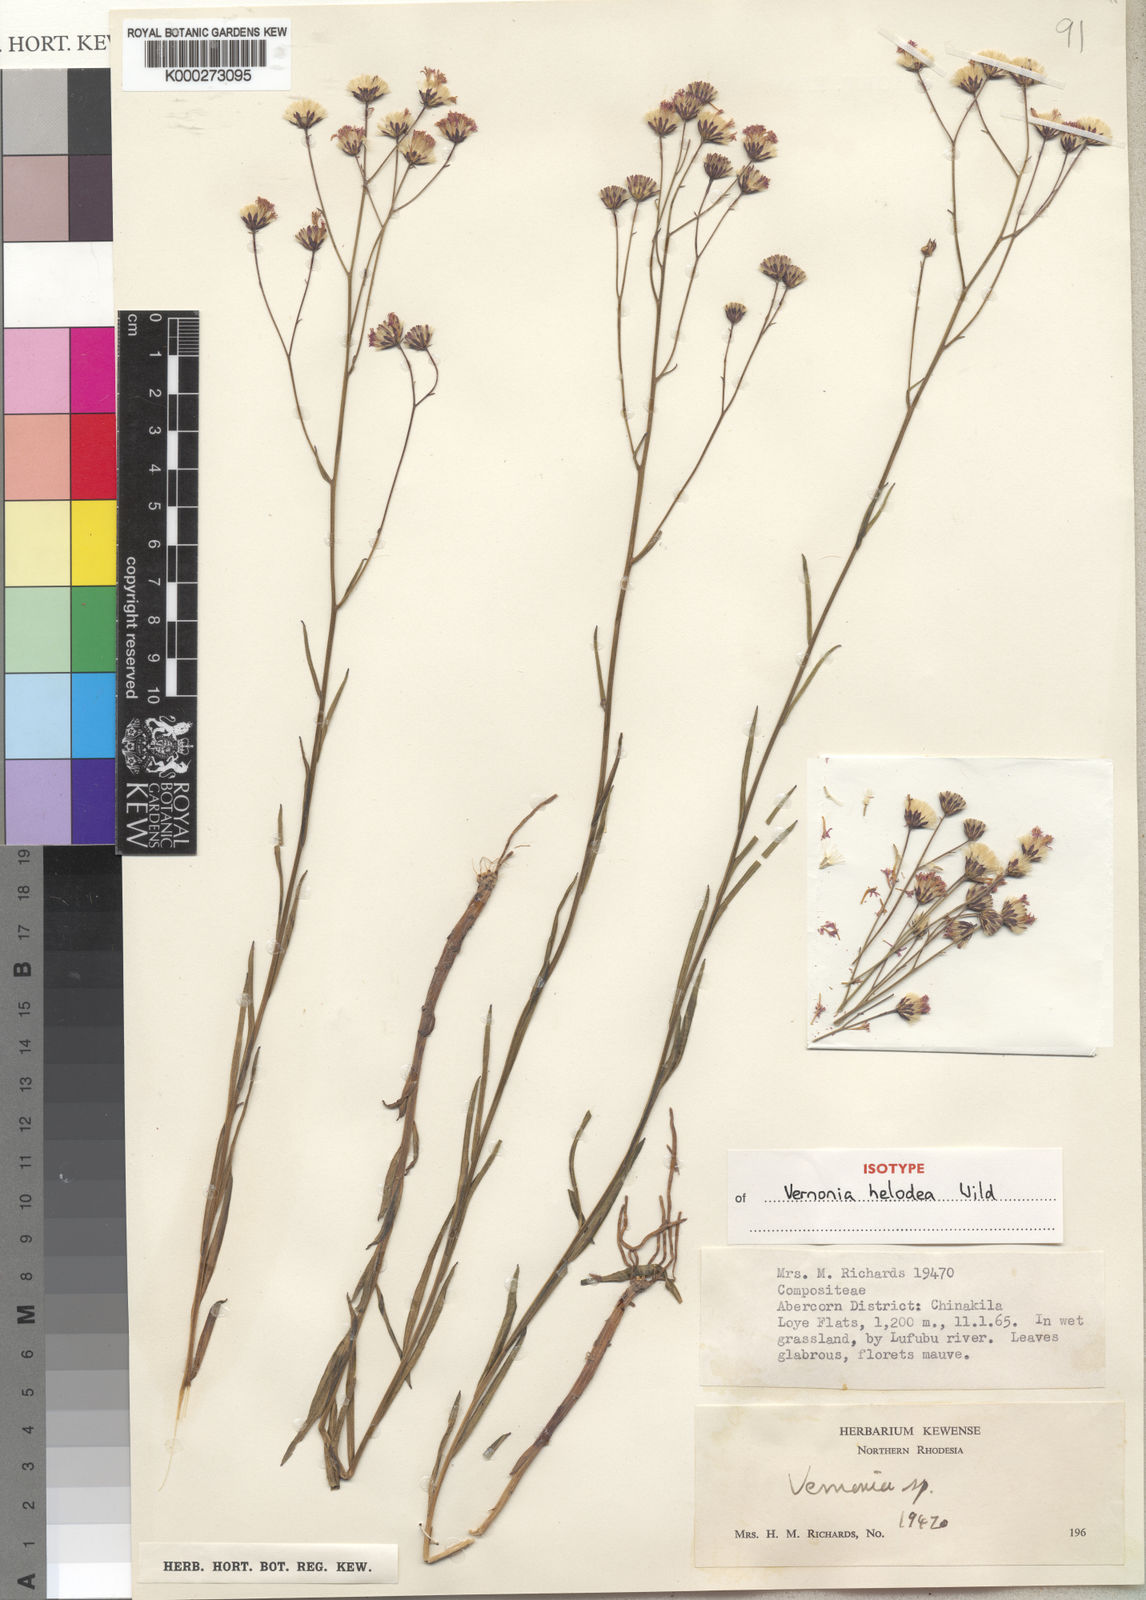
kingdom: Plantae
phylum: Tracheophyta
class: Magnoliopsida
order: Asterales
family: Asteraceae
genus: Vernonia
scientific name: Vernonia helodea
